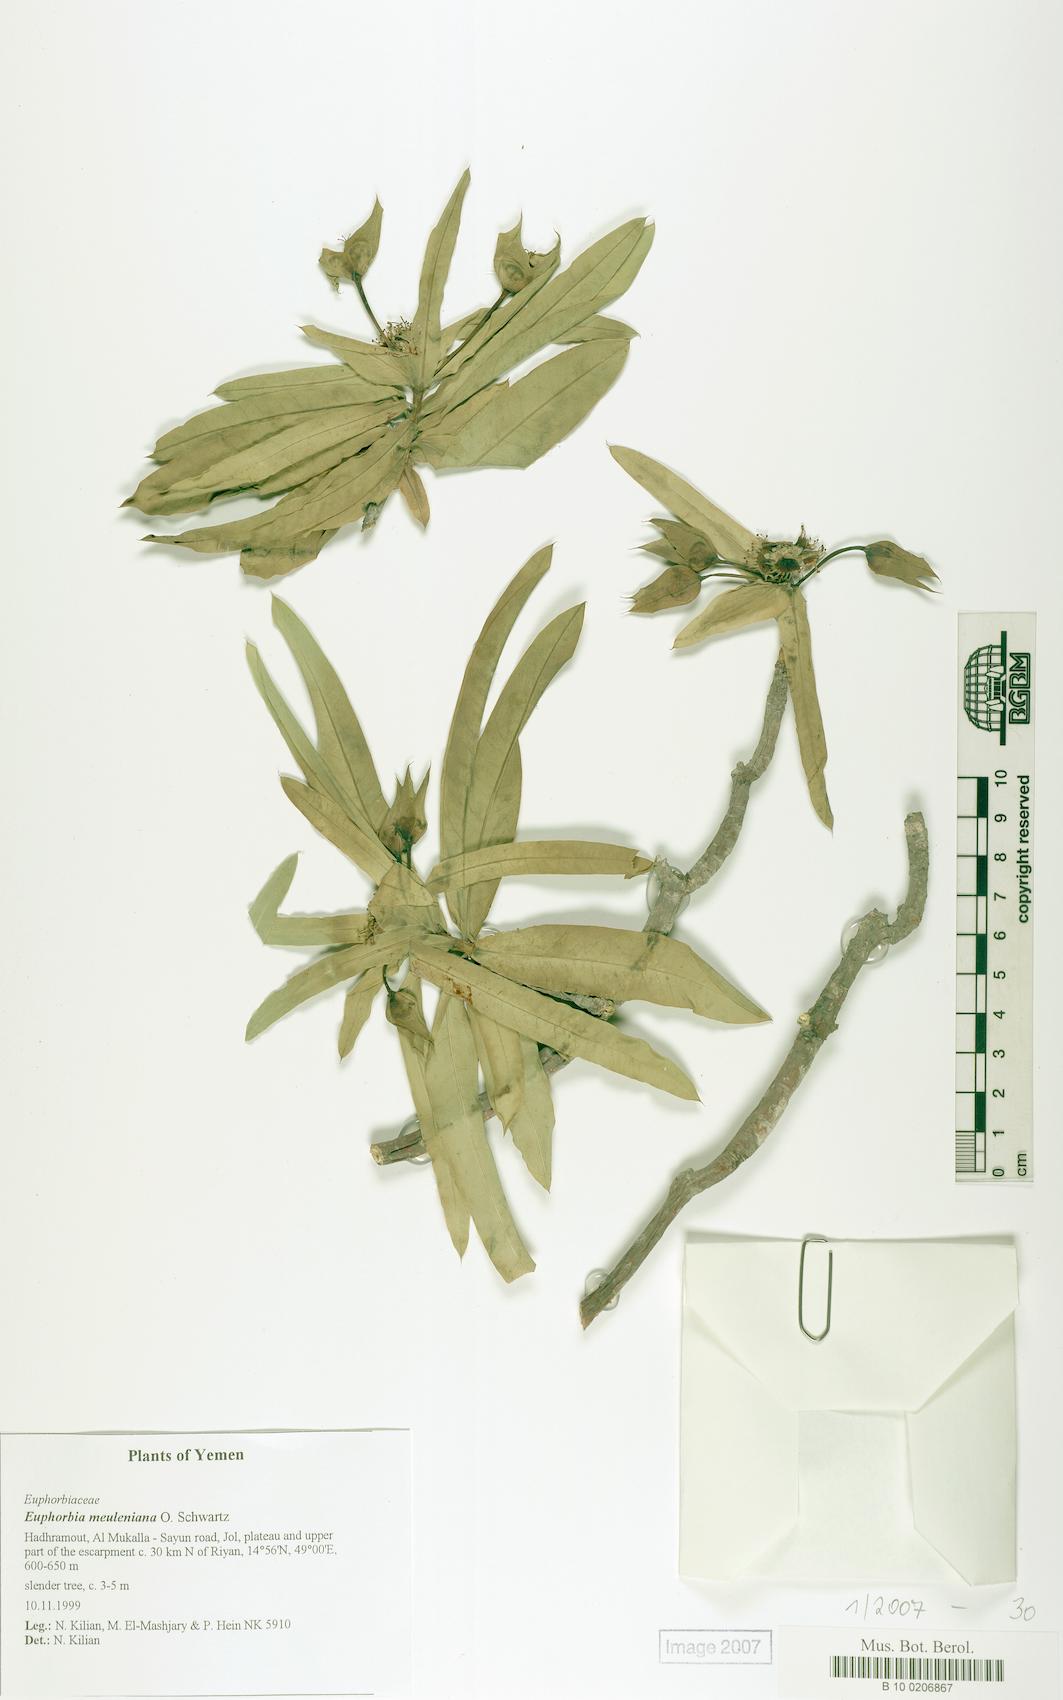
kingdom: Plantae
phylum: Tracheophyta
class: Magnoliopsida
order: Malpighiales
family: Euphorbiaceae
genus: Euphorbia
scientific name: Euphorbia meuleniana
